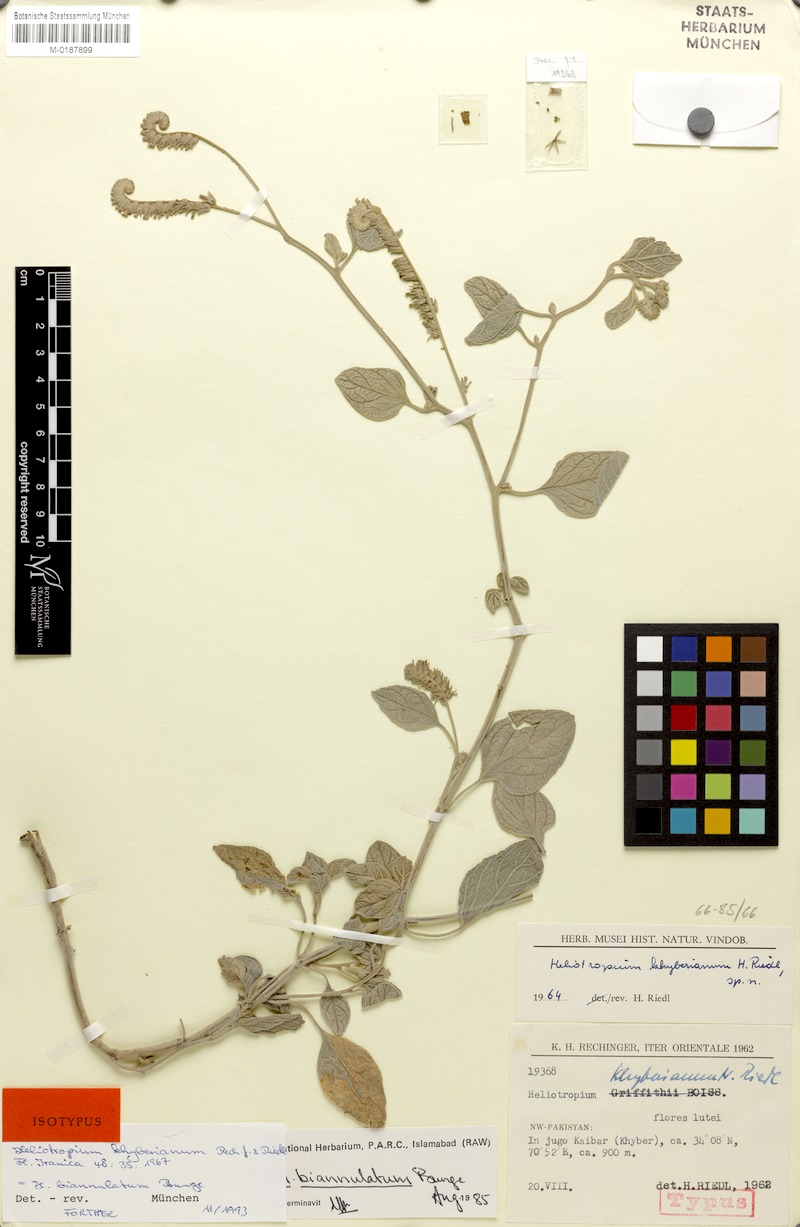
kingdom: Plantae
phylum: Tracheophyta
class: Magnoliopsida
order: Boraginales
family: Heliotropiaceae
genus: Heliotropium
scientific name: Heliotropium biannulatum
